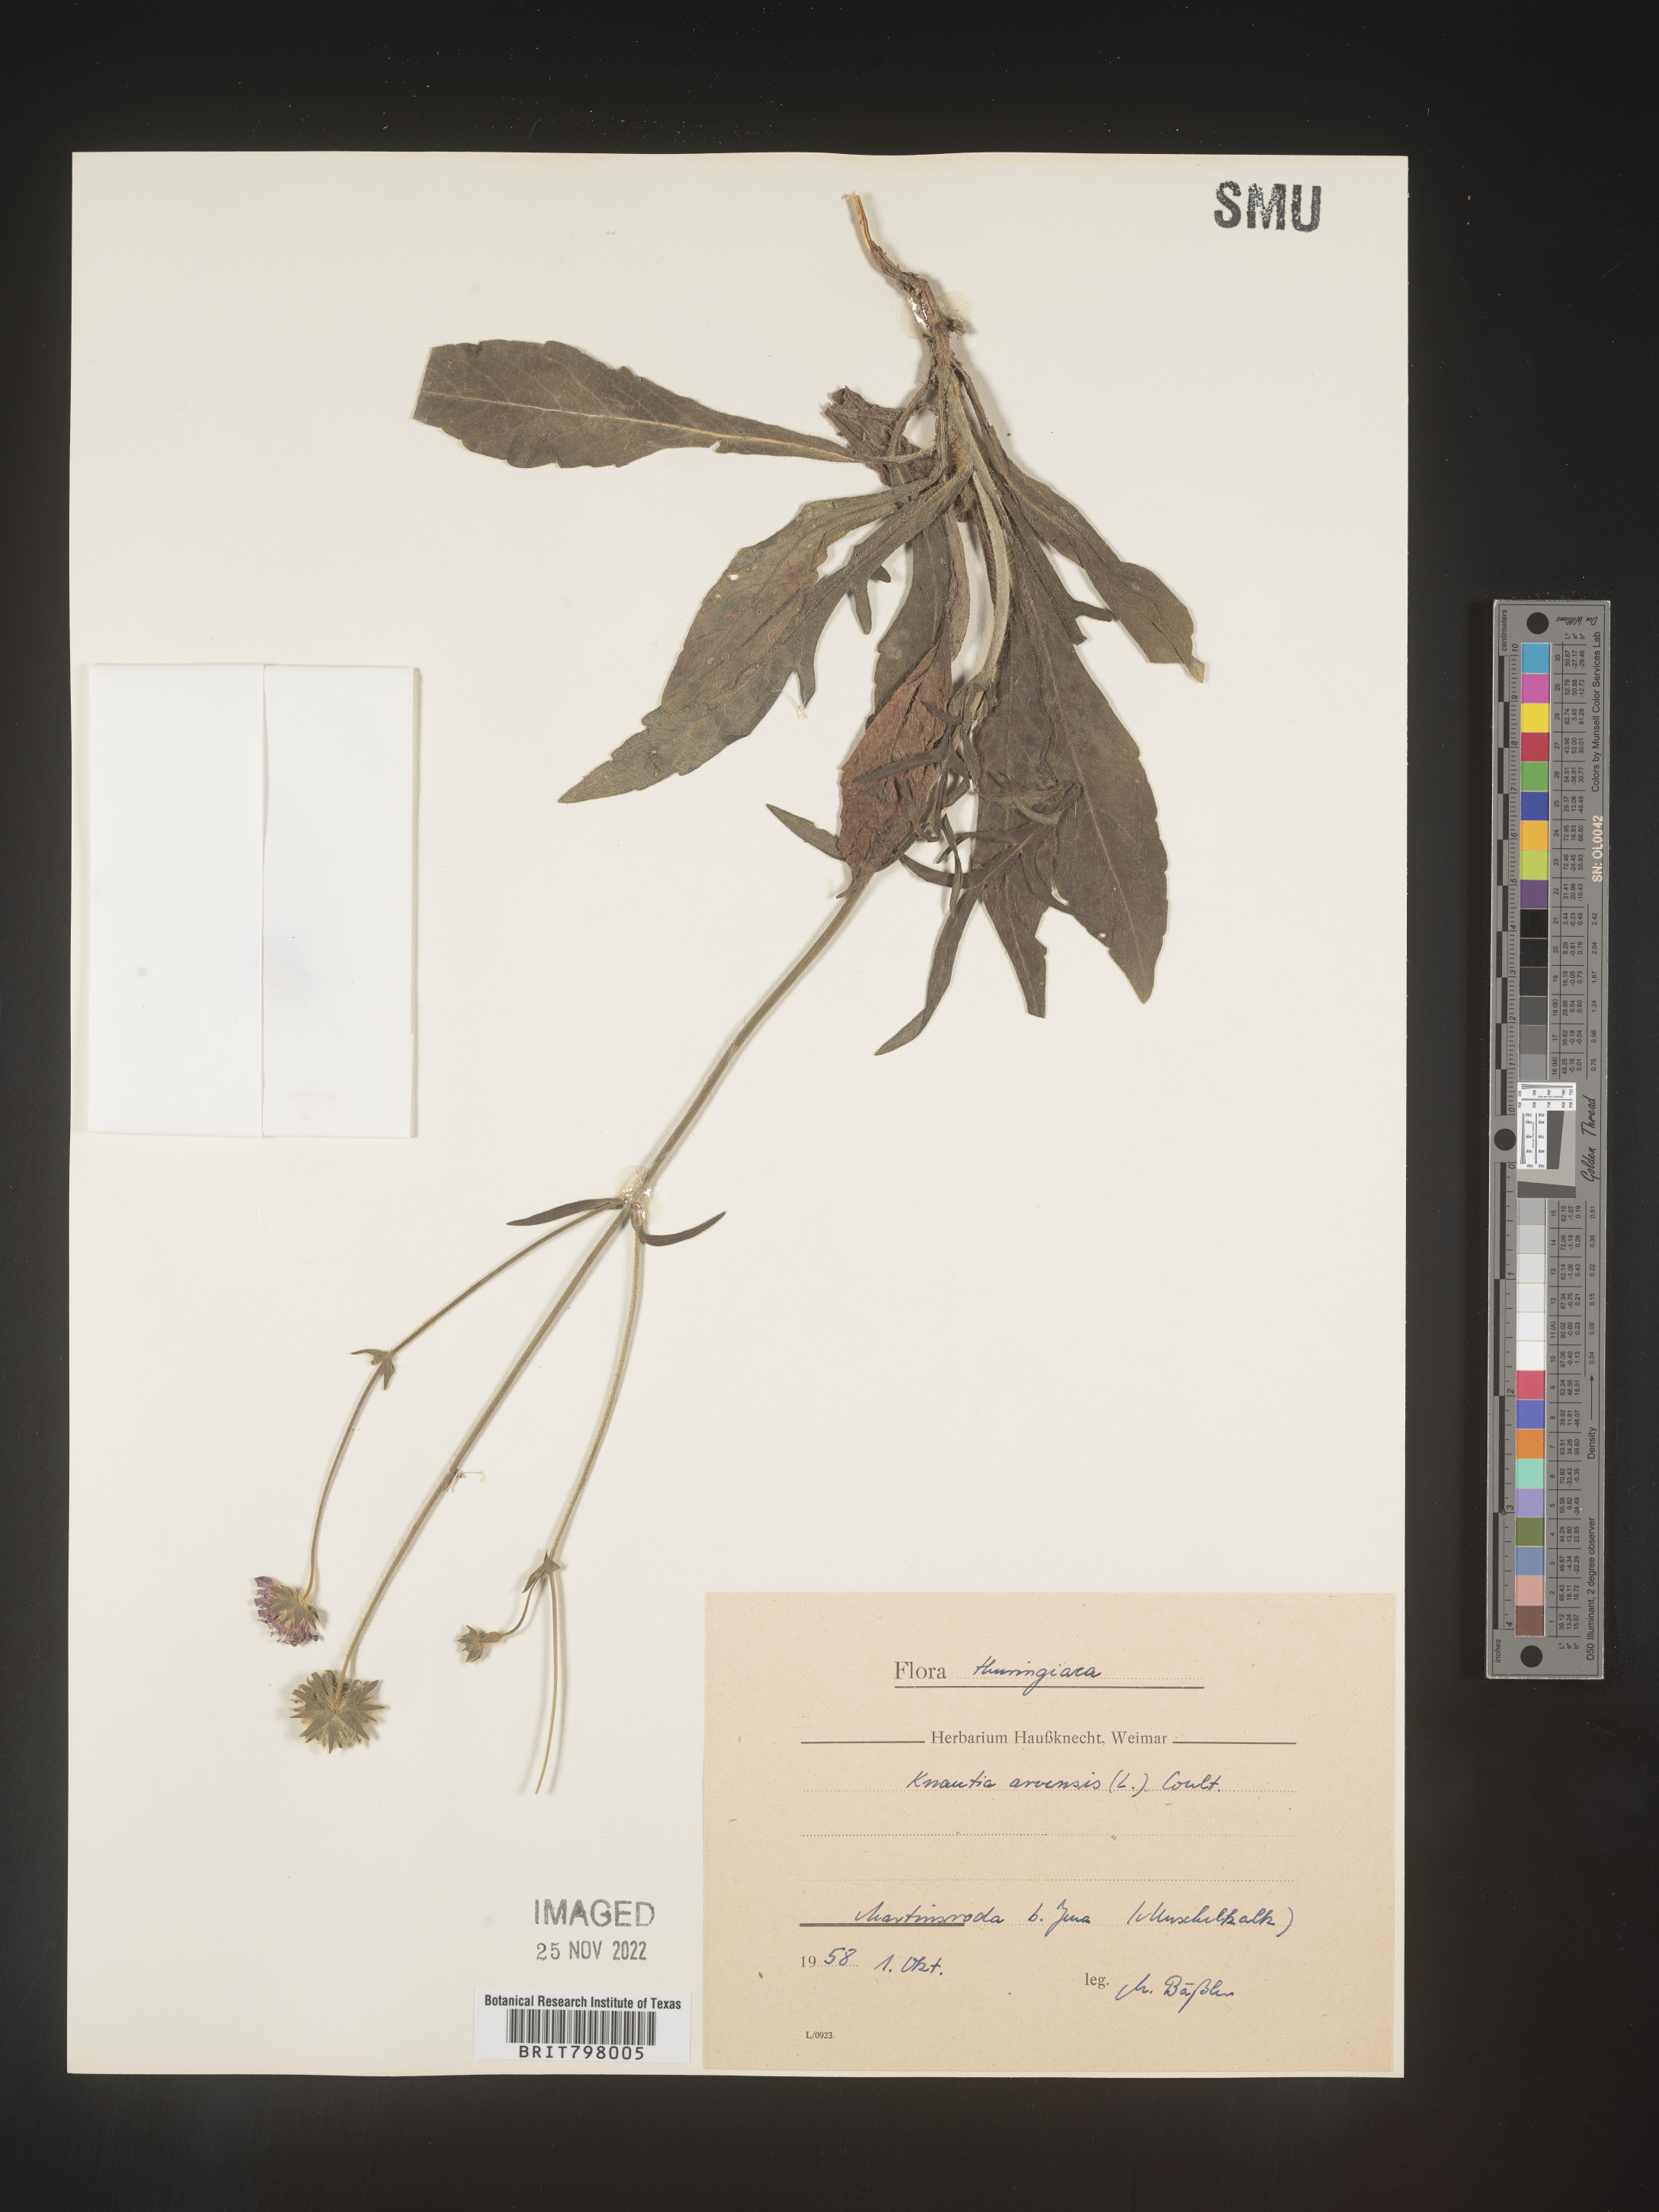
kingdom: Plantae
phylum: Tracheophyta
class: Magnoliopsida
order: Dipsacales
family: Caprifoliaceae
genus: Knautia
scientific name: Knautia
